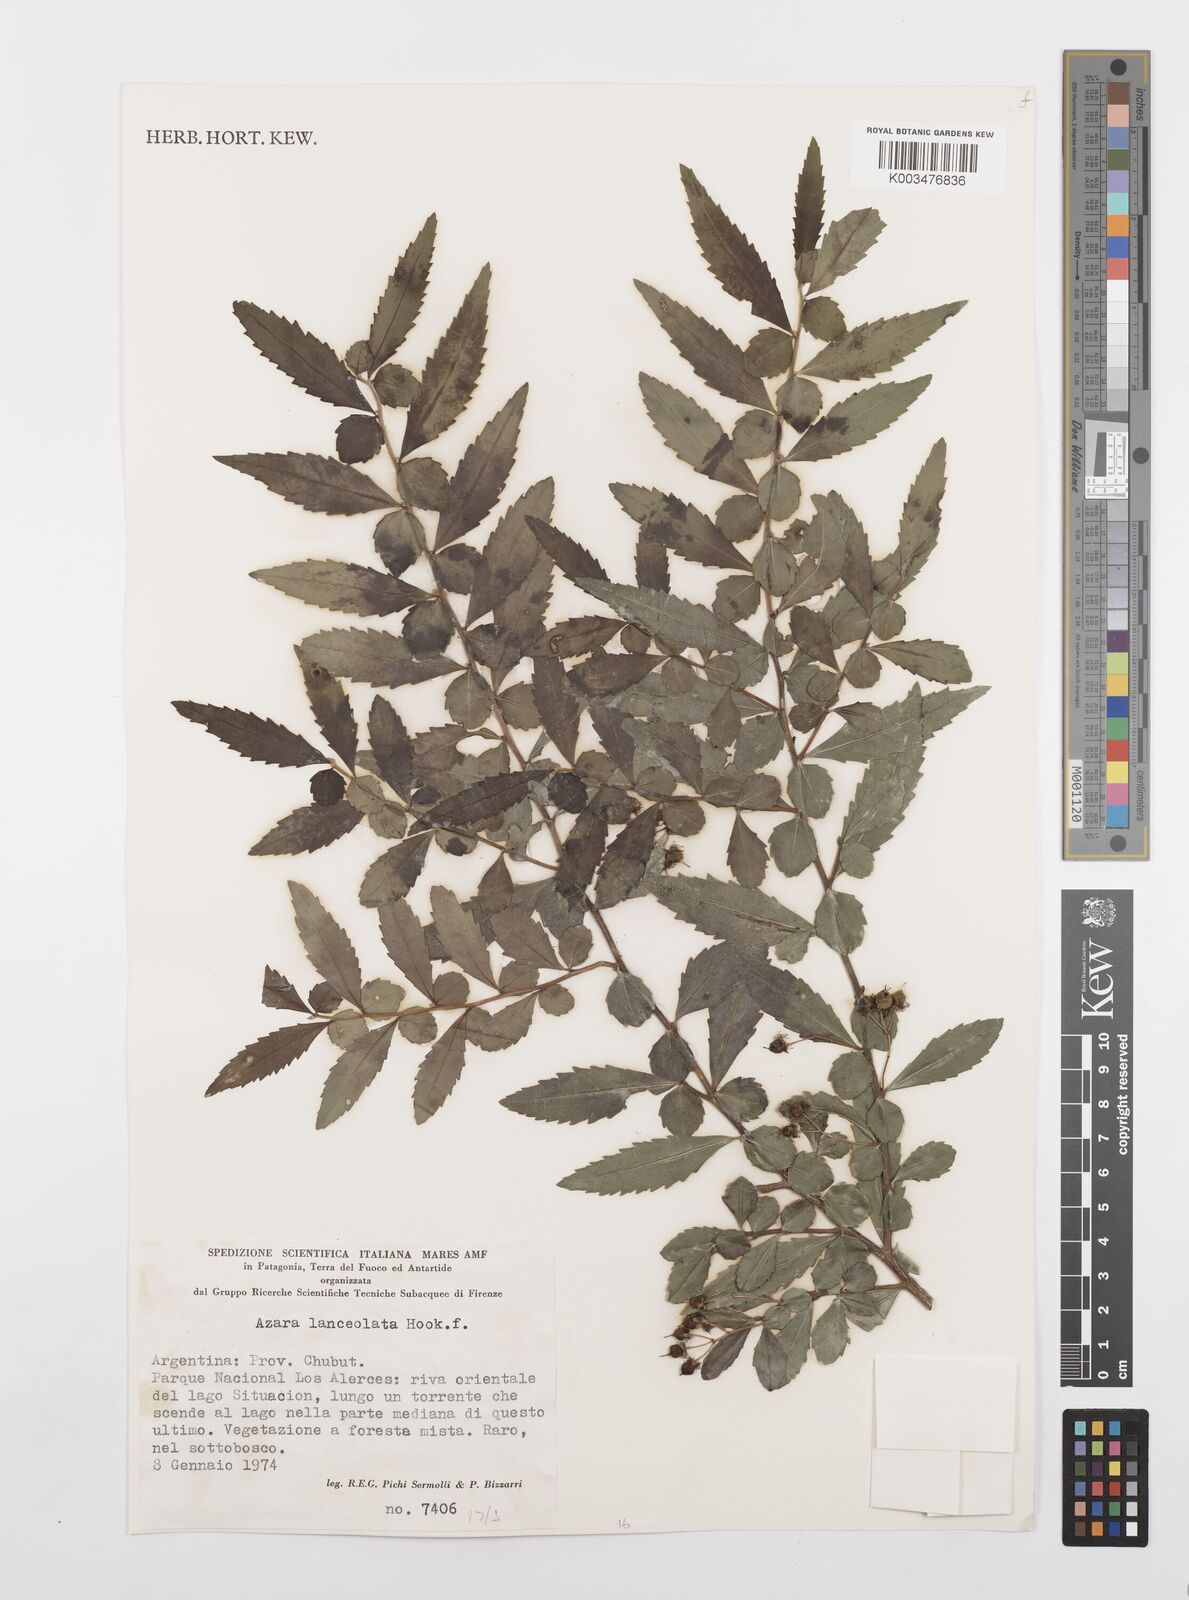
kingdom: Plantae
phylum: Tracheophyta
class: Magnoliopsida
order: Malpighiales
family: Salicaceae
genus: Azara
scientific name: Azara lanceolata
